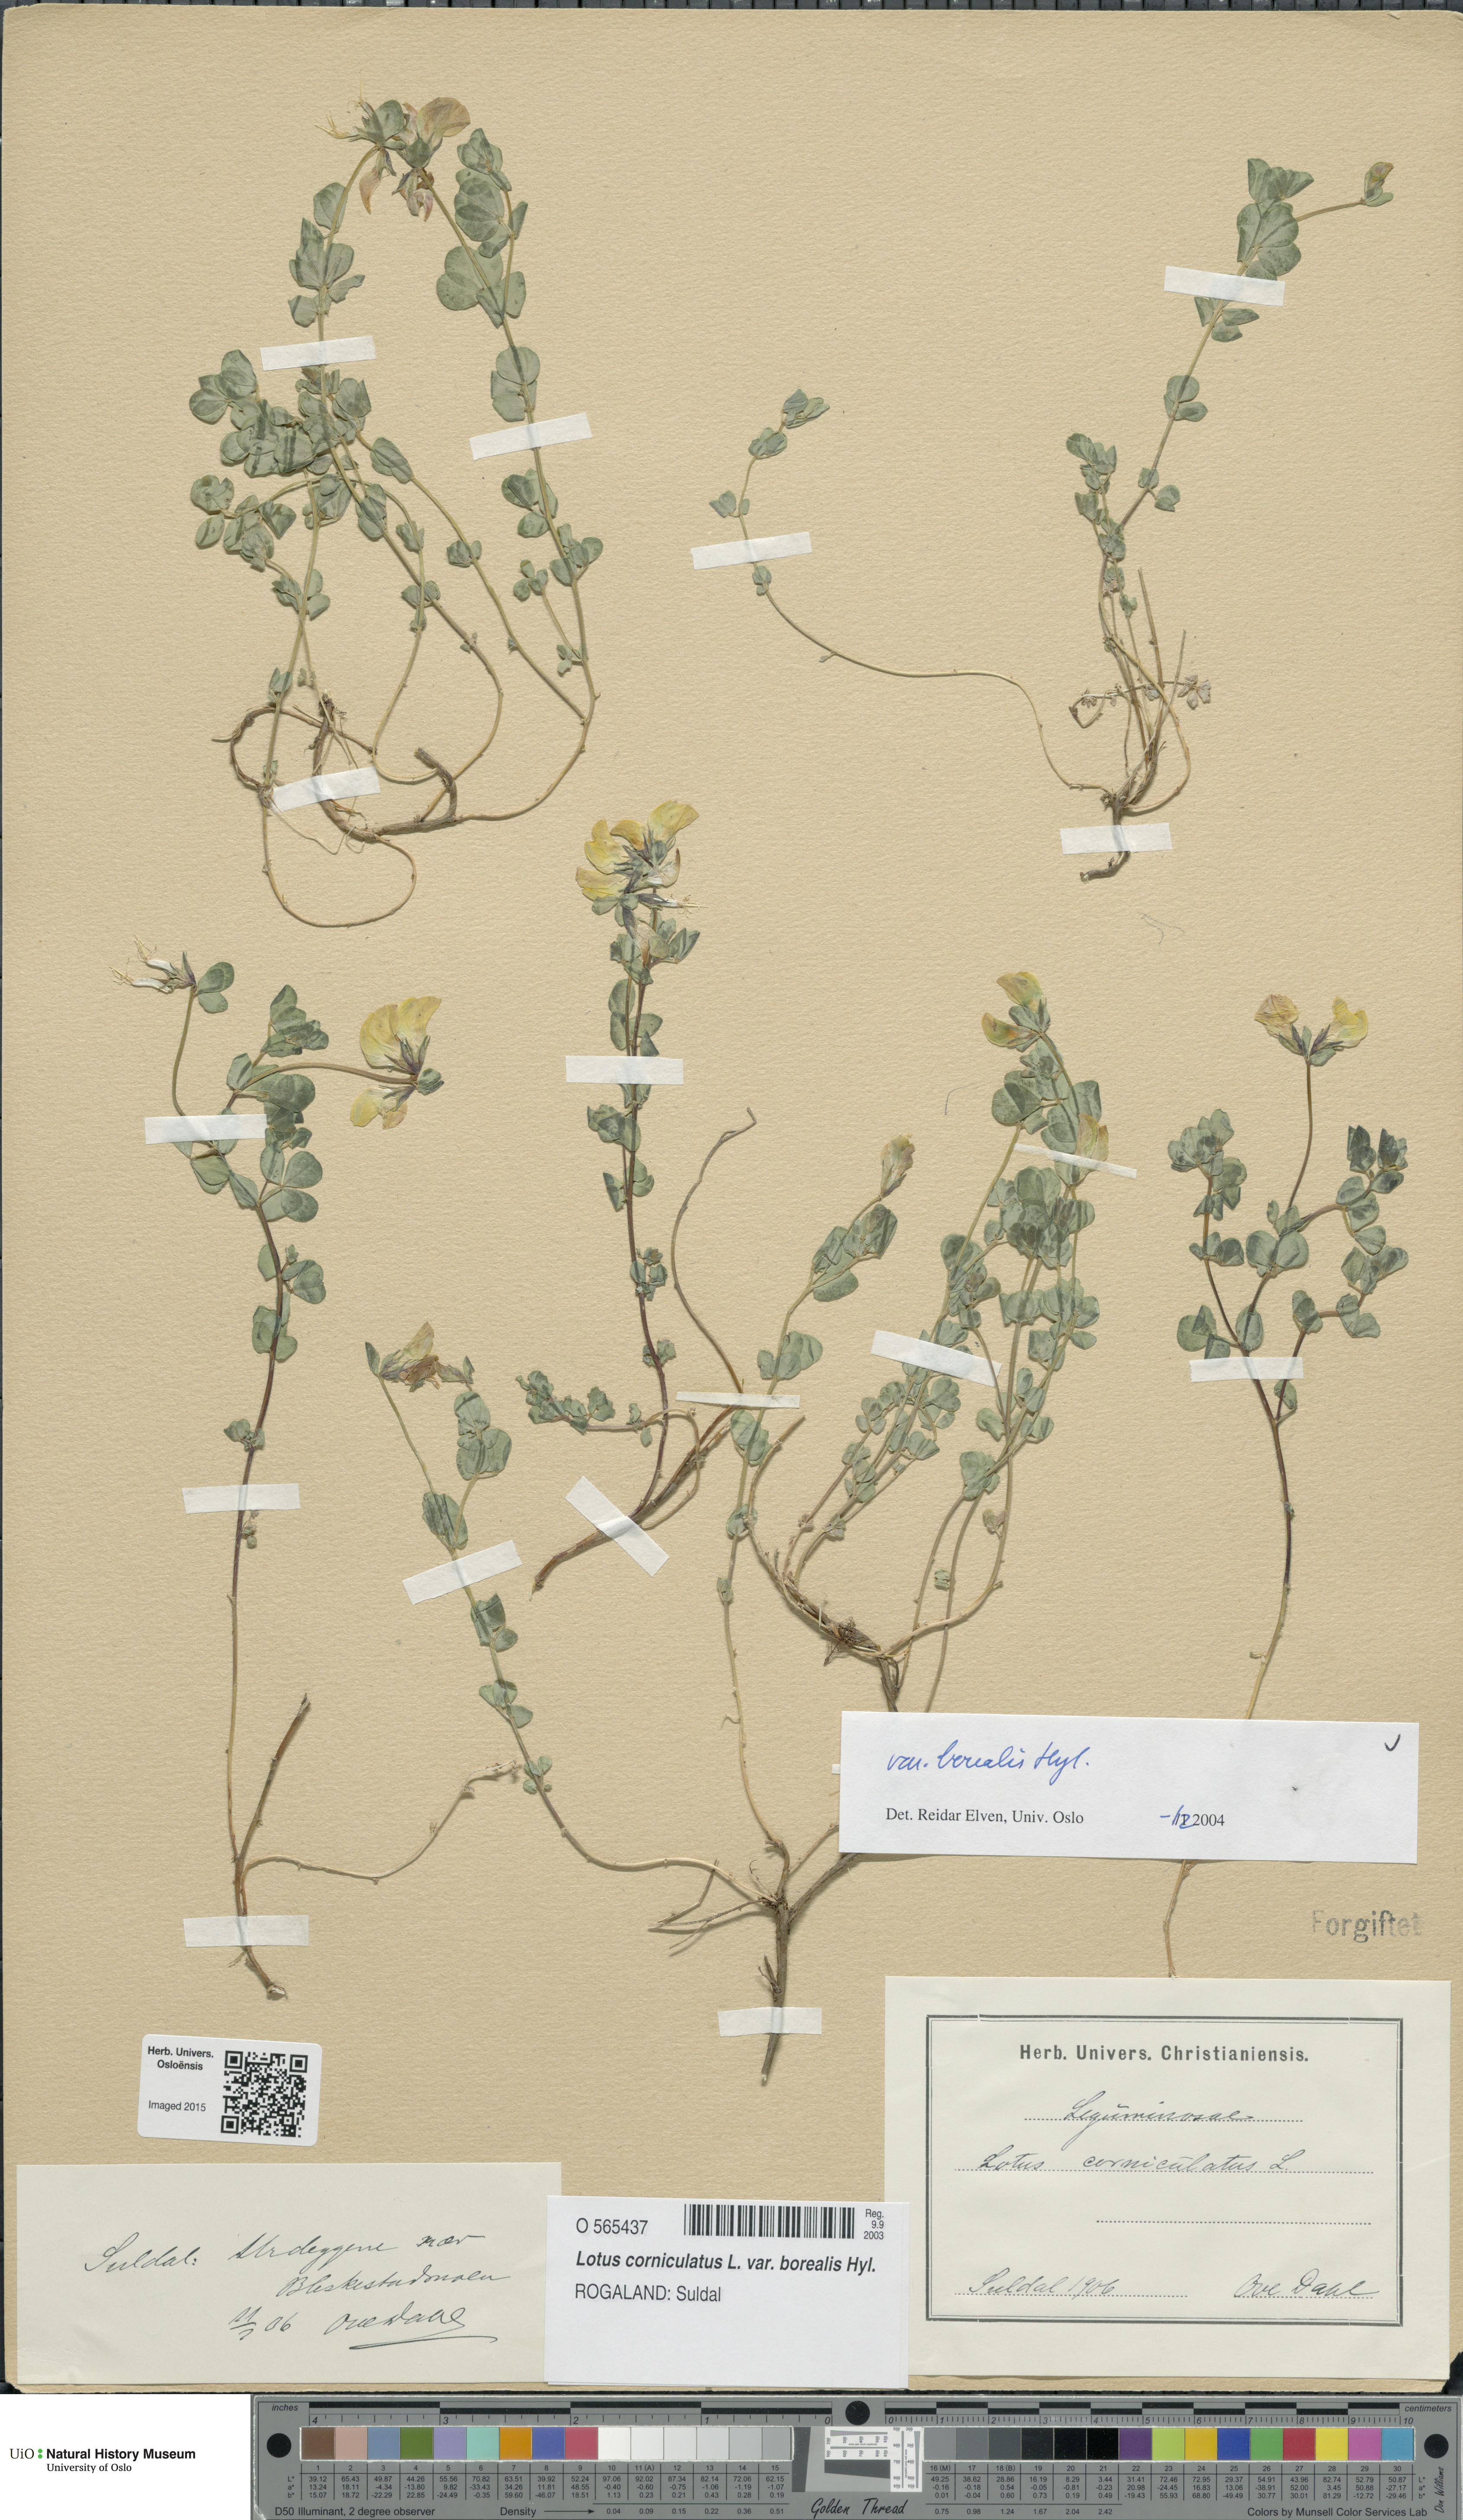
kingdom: Plantae
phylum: Tracheophyta
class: Magnoliopsida
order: Fabales
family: Fabaceae
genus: Lotus
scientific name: Lotus corniculatus
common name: Common bird's-foot-trefoil
